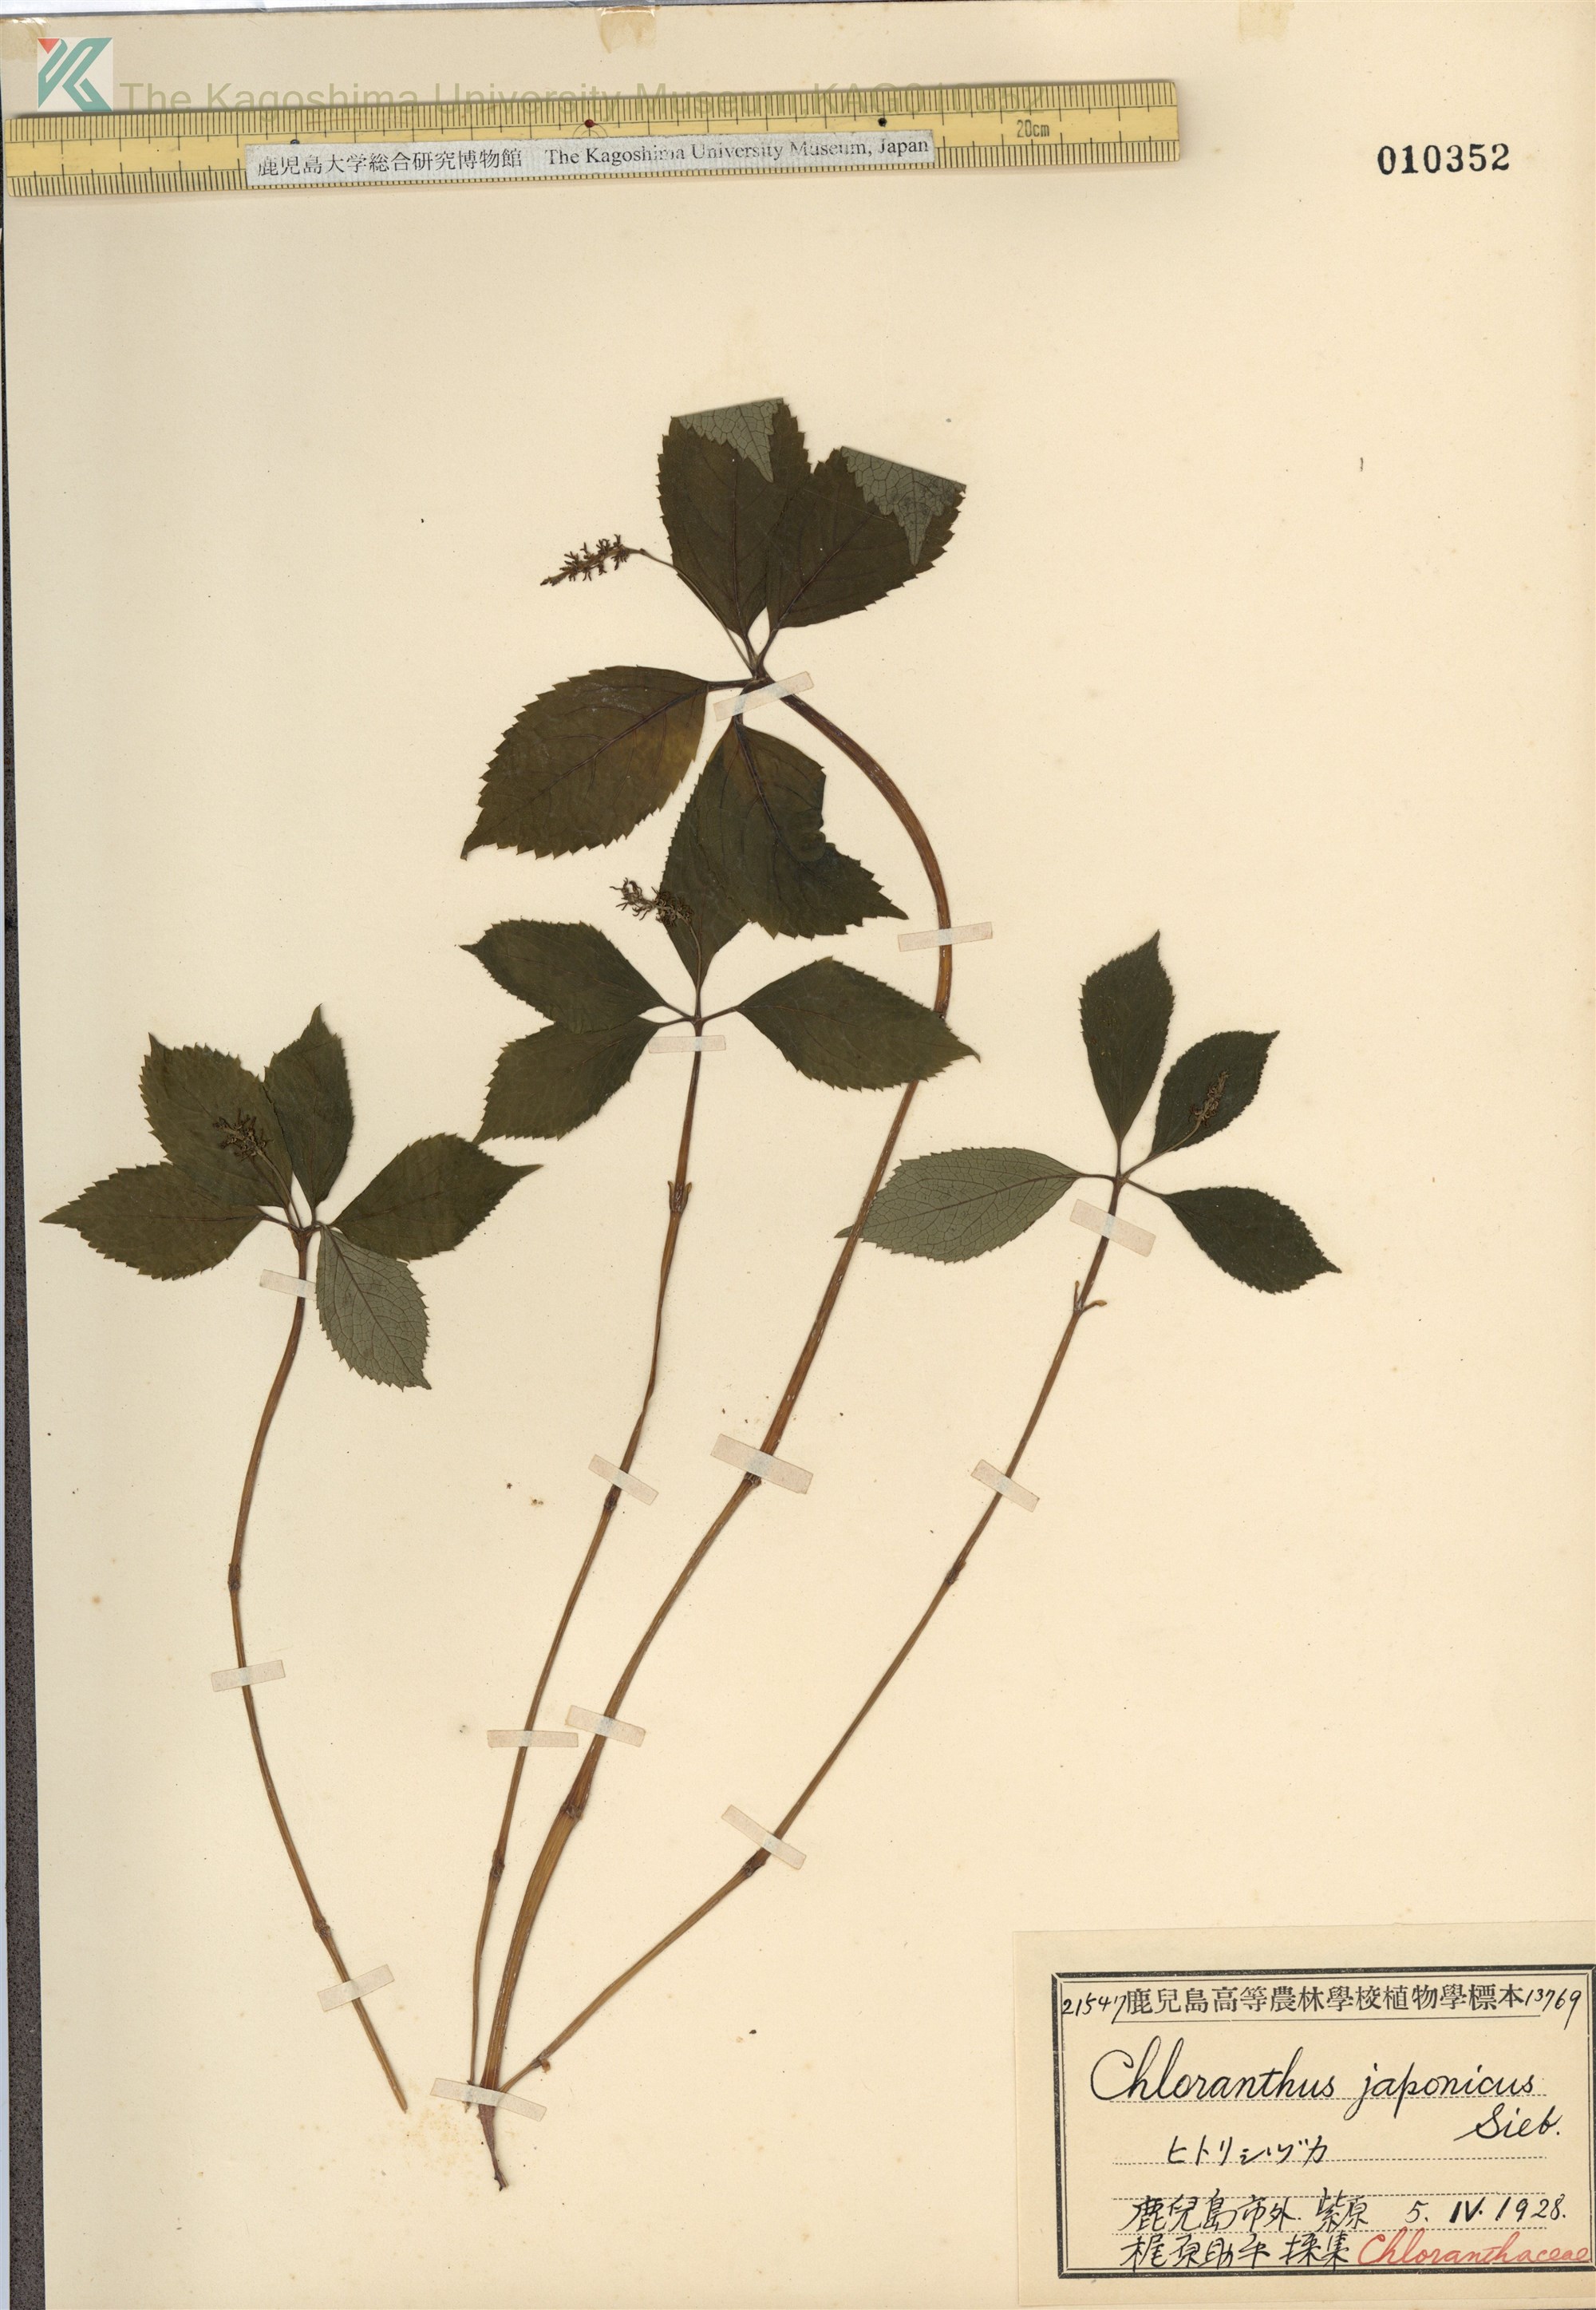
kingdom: Plantae
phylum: Tracheophyta
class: Magnoliopsida
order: Chloranthales
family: Chloranthaceae
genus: Chloranthus
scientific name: Chloranthus japonicus
